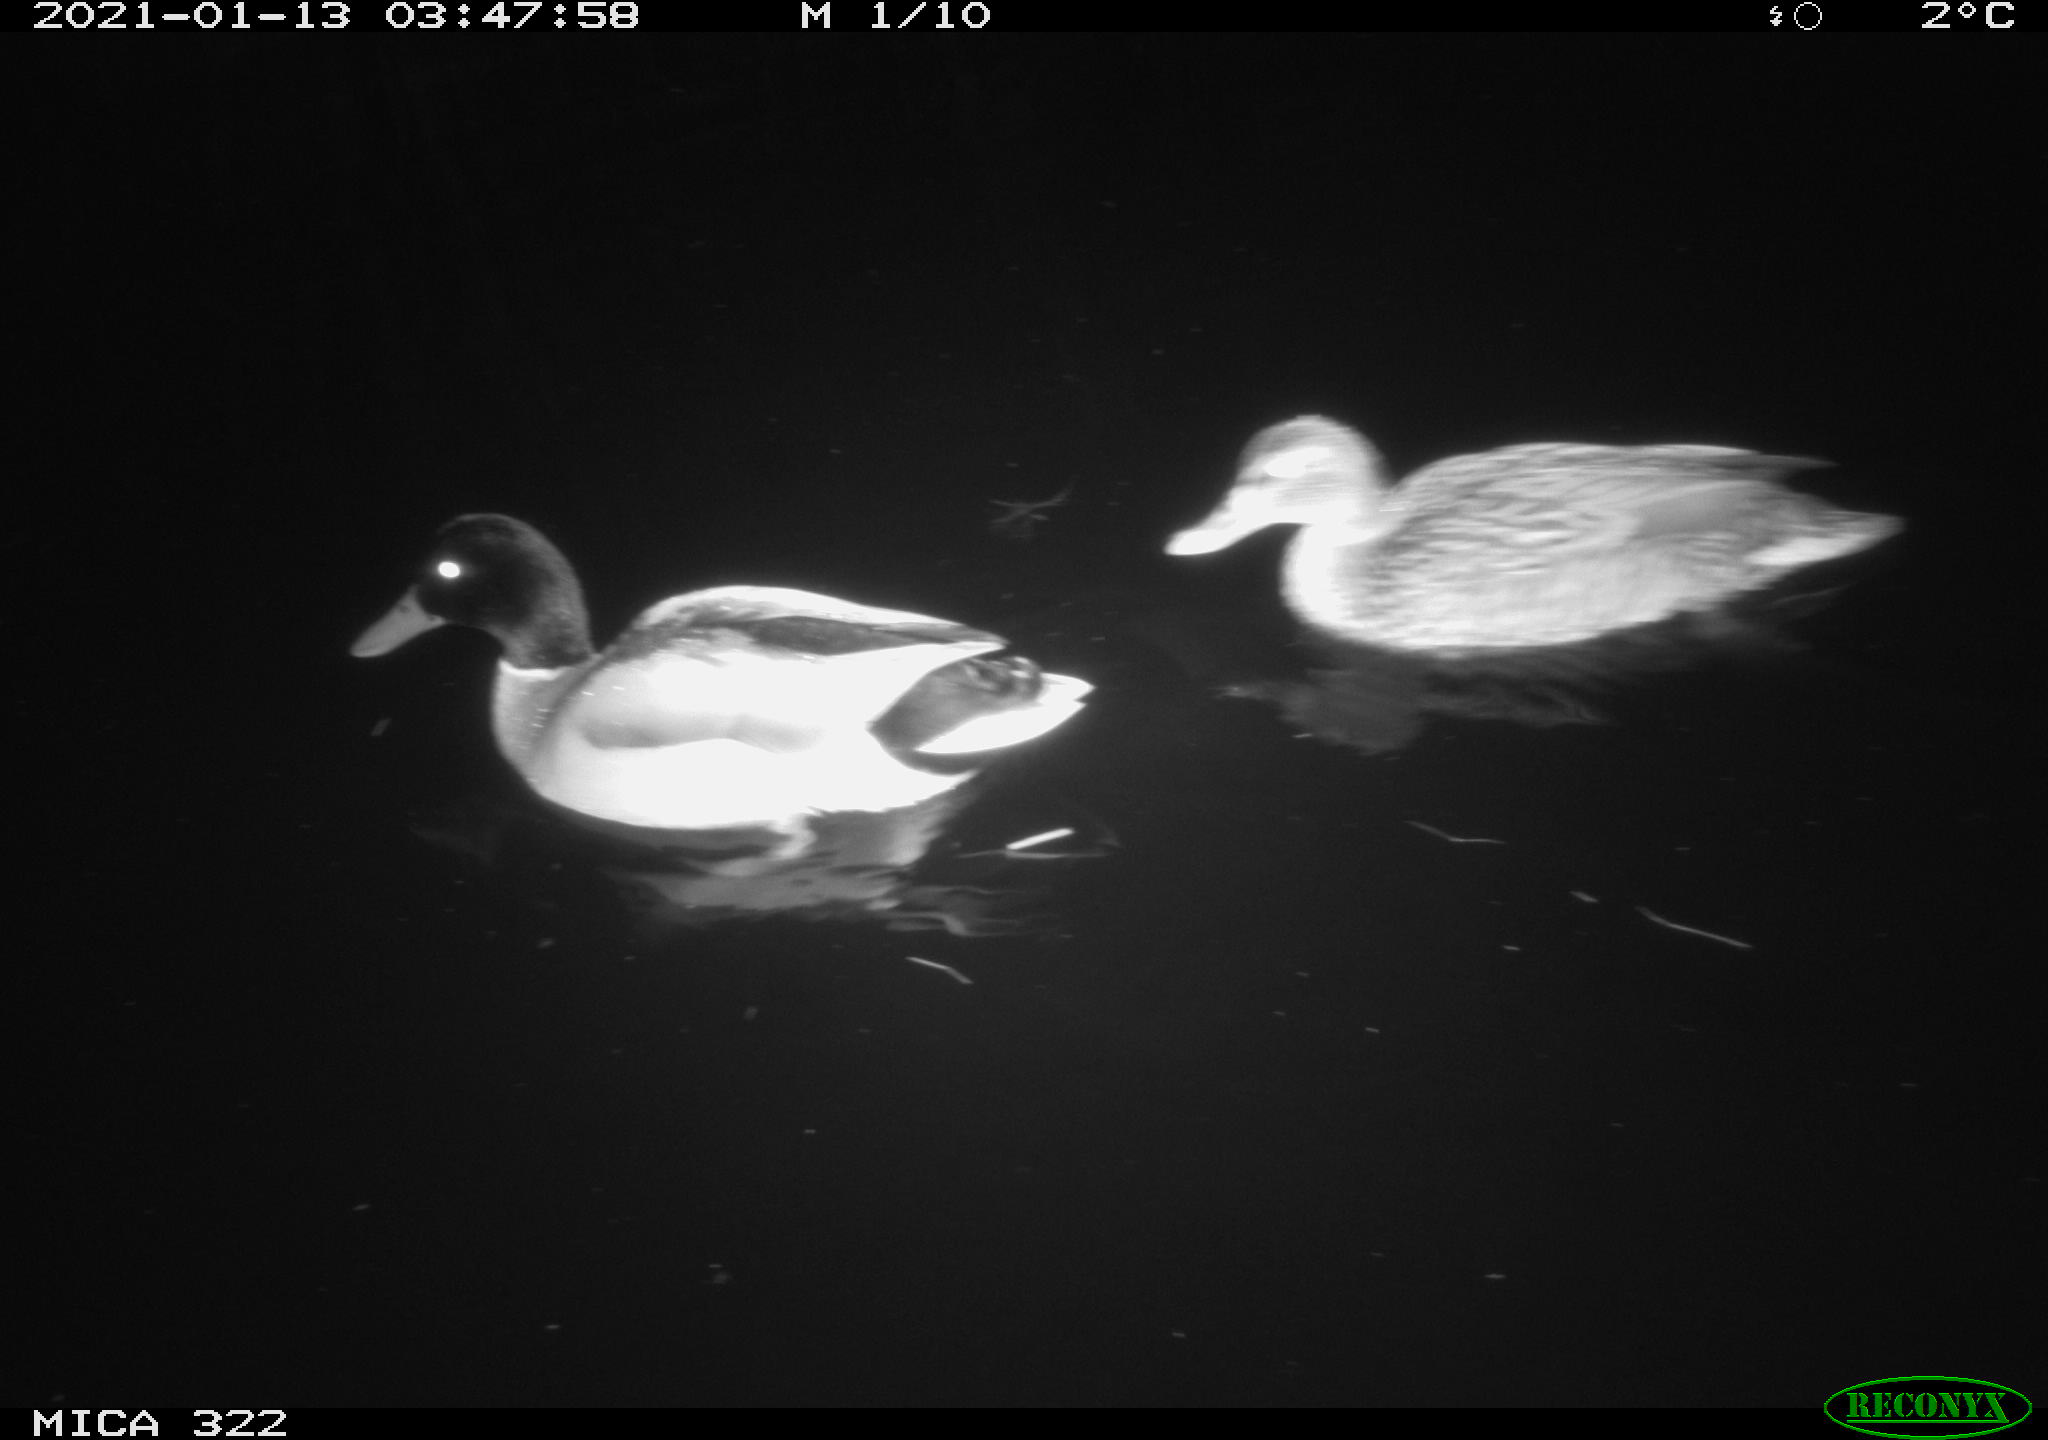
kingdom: Animalia
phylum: Chordata
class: Aves
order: Anseriformes
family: Anatidae
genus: Anas
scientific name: Anas platyrhynchos
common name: Mallard
